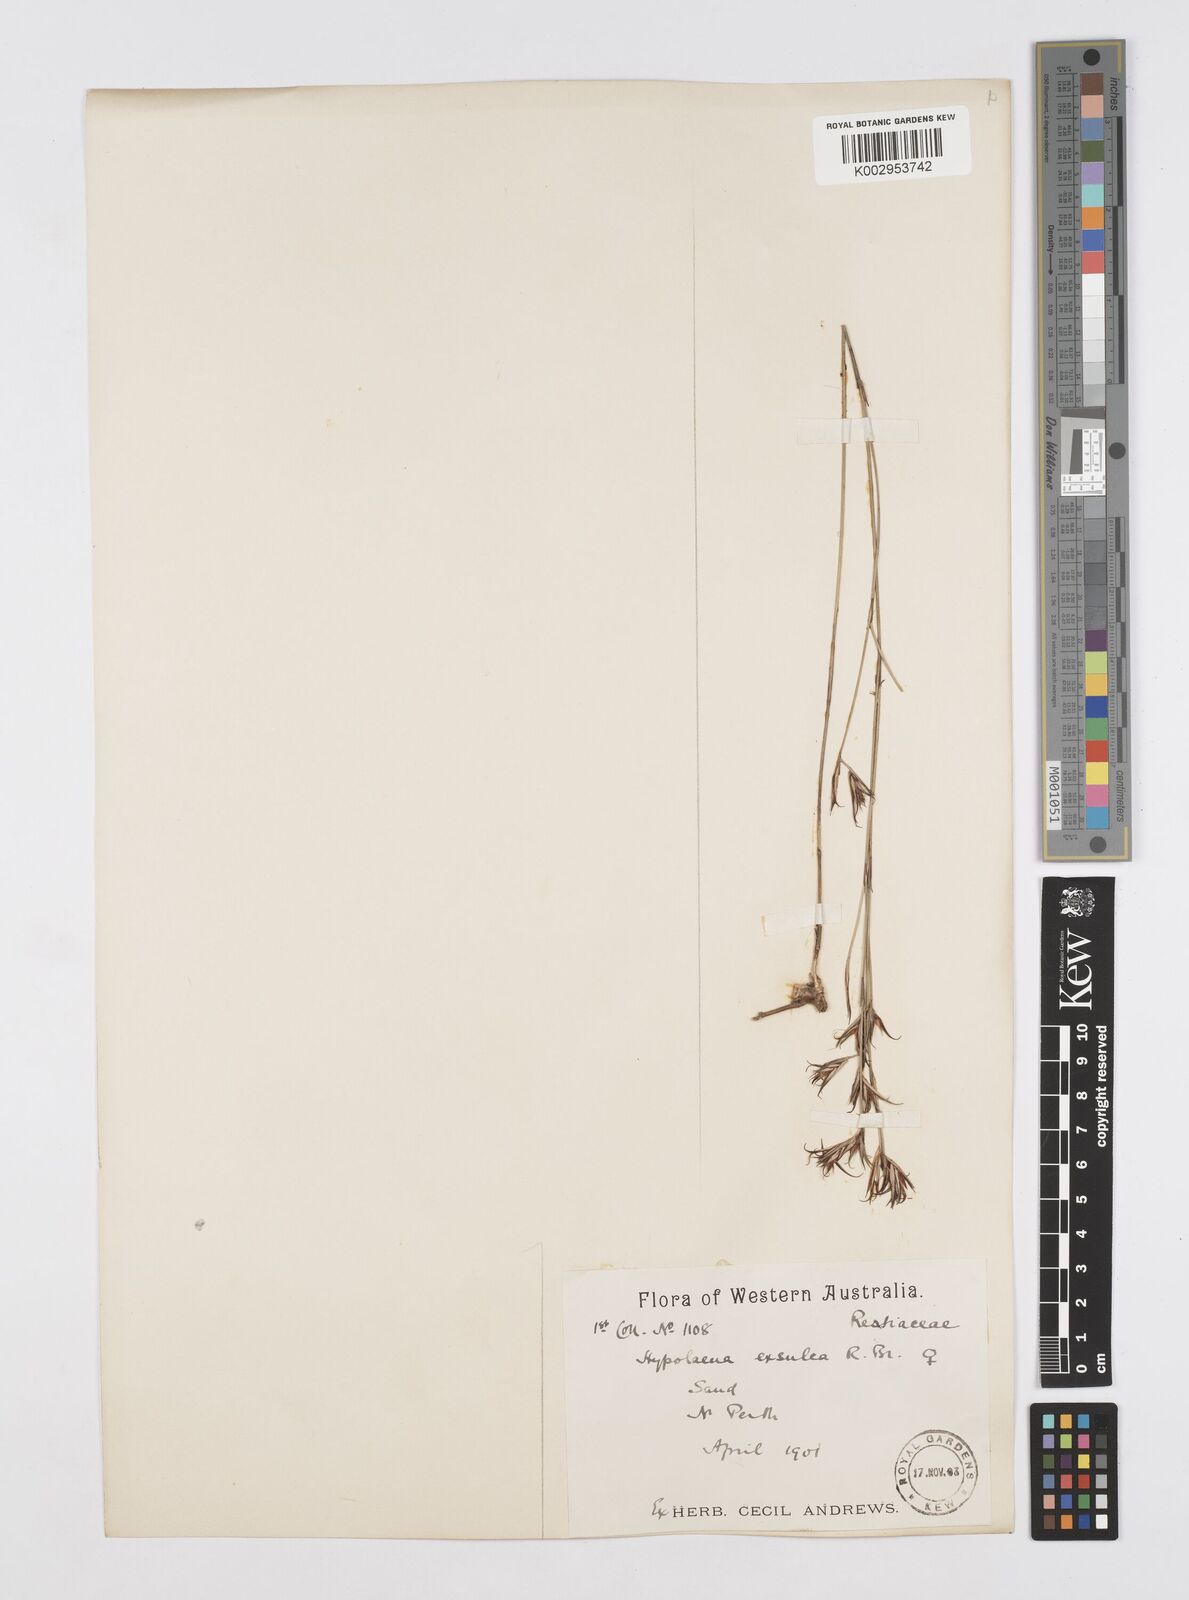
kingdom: Plantae
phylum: Tracheophyta
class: Liliopsida
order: Poales
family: Restionaceae
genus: Hypolaena
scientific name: Hypolaena exsulca
